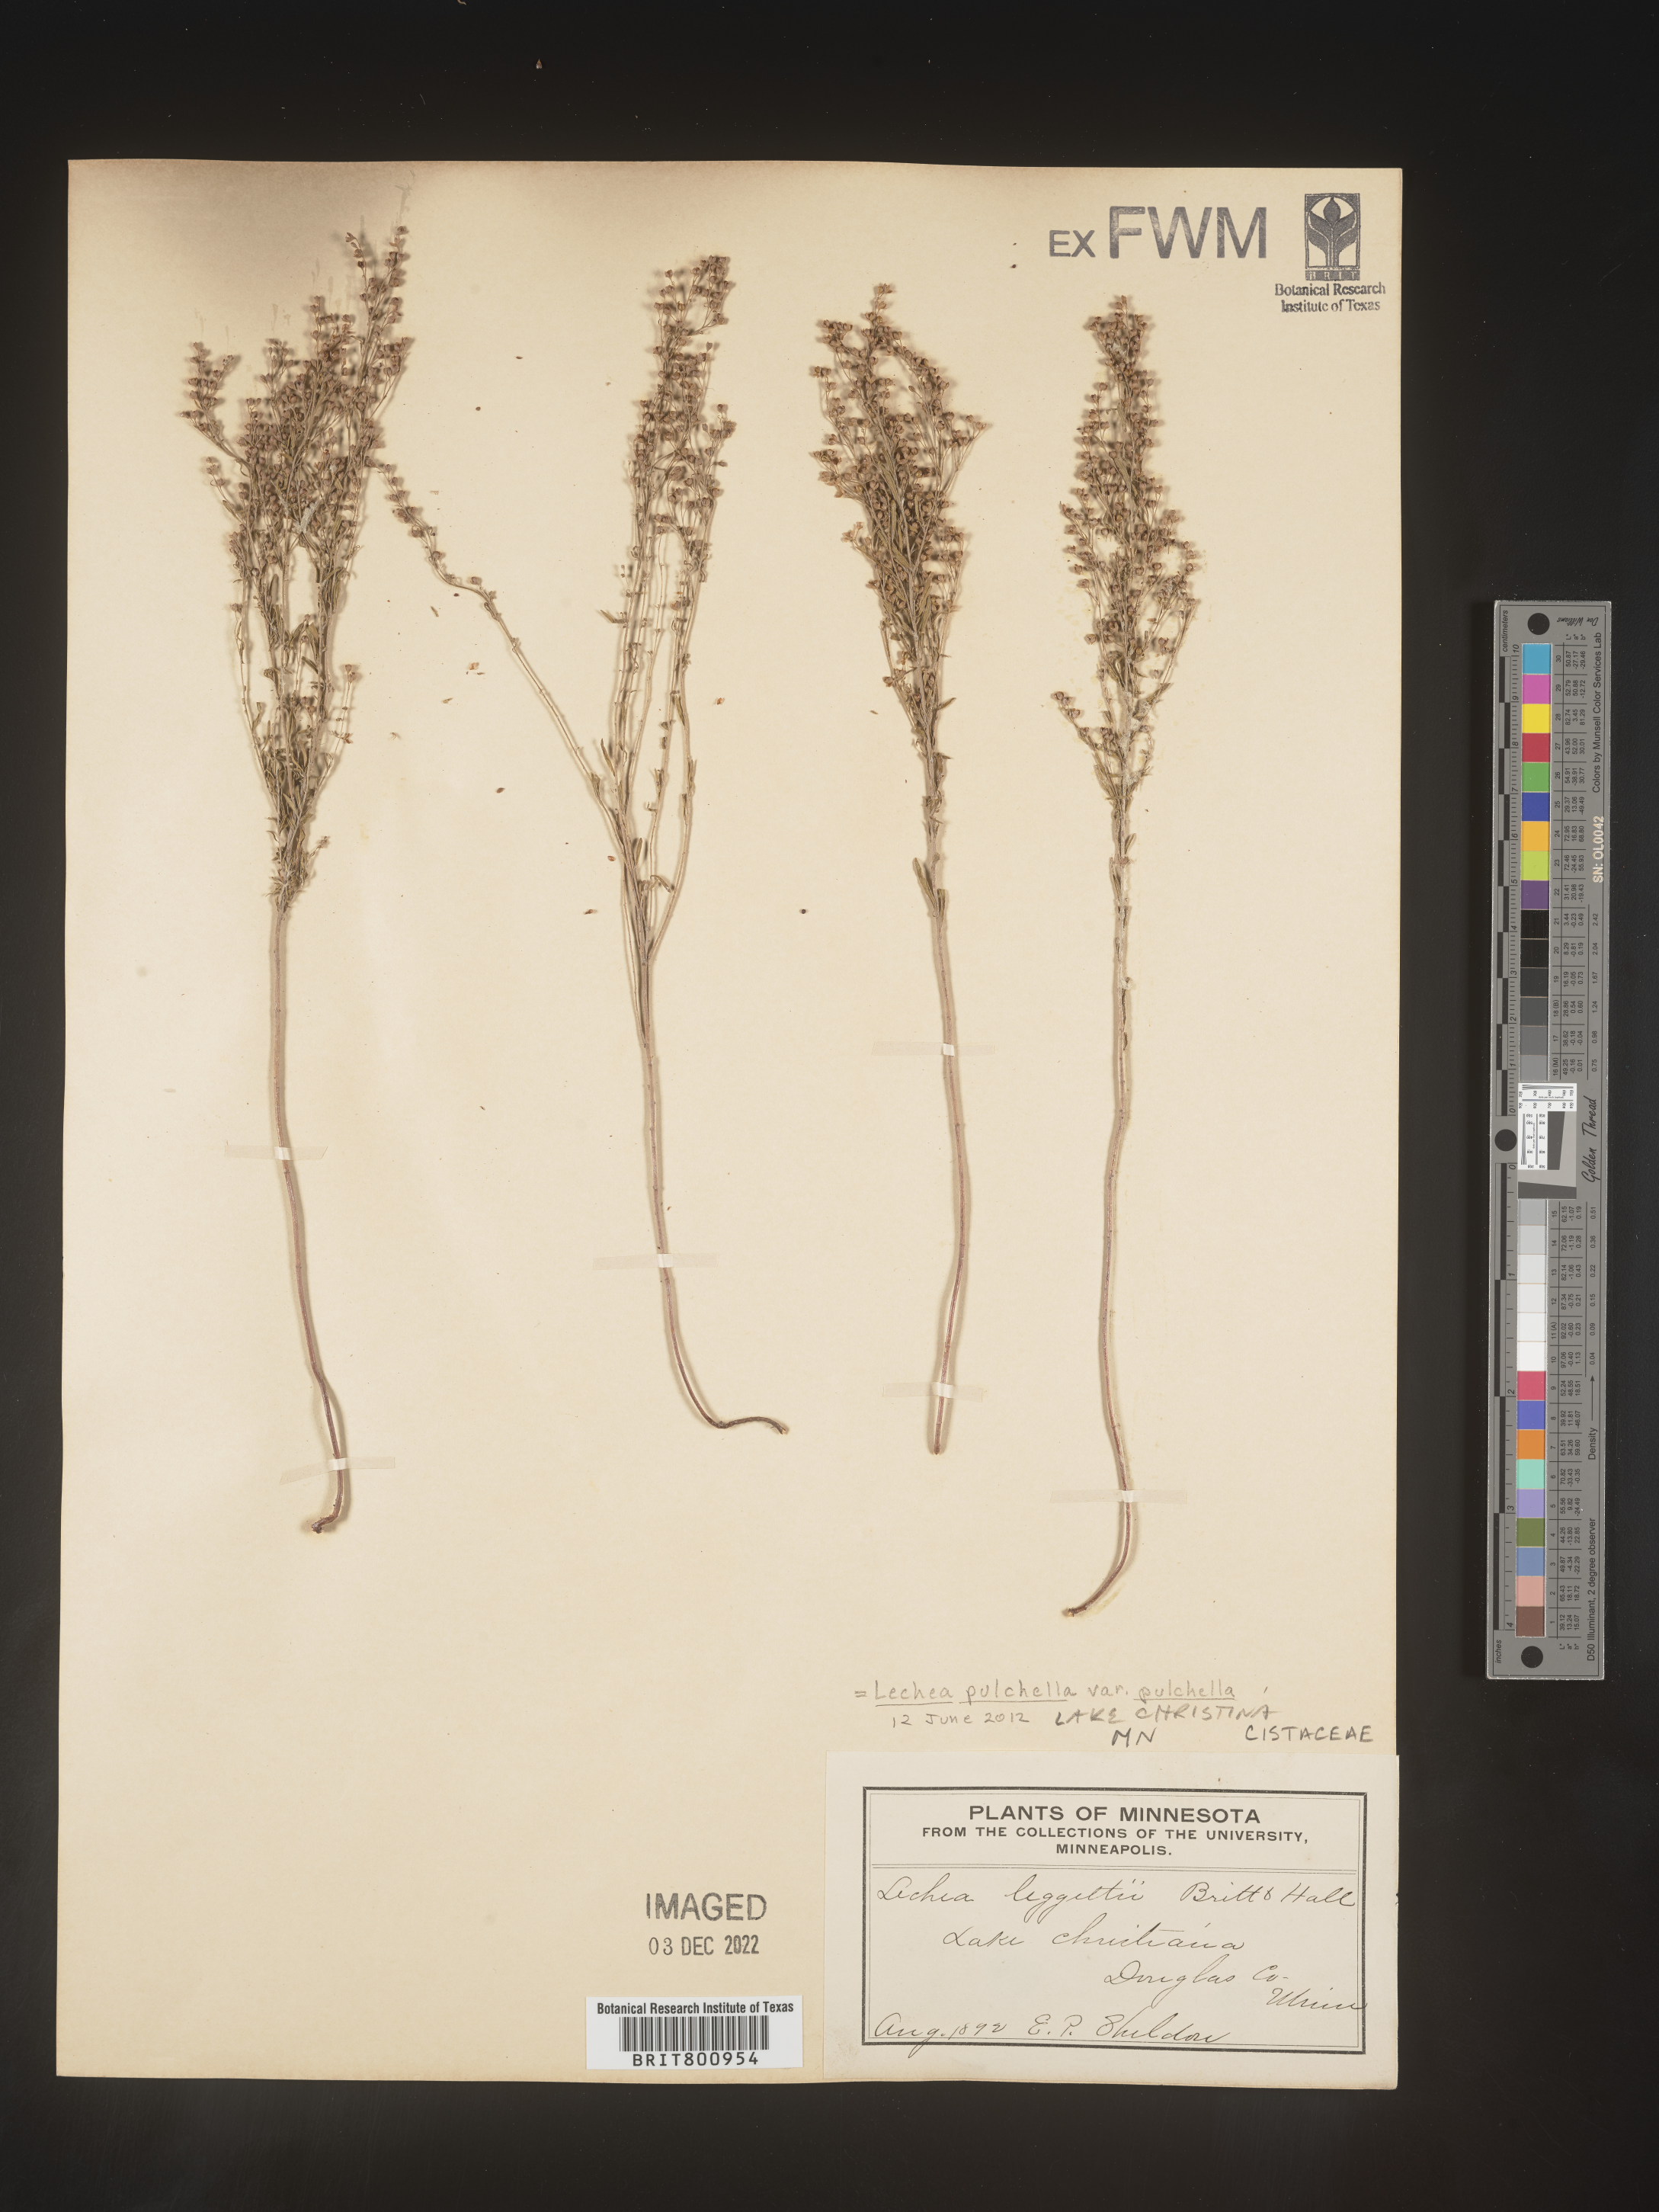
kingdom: Plantae
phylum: Tracheophyta
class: Magnoliopsida
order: Malvales
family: Cistaceae
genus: Lechea
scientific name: Lechea pulchella
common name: Leggett's pinweed
